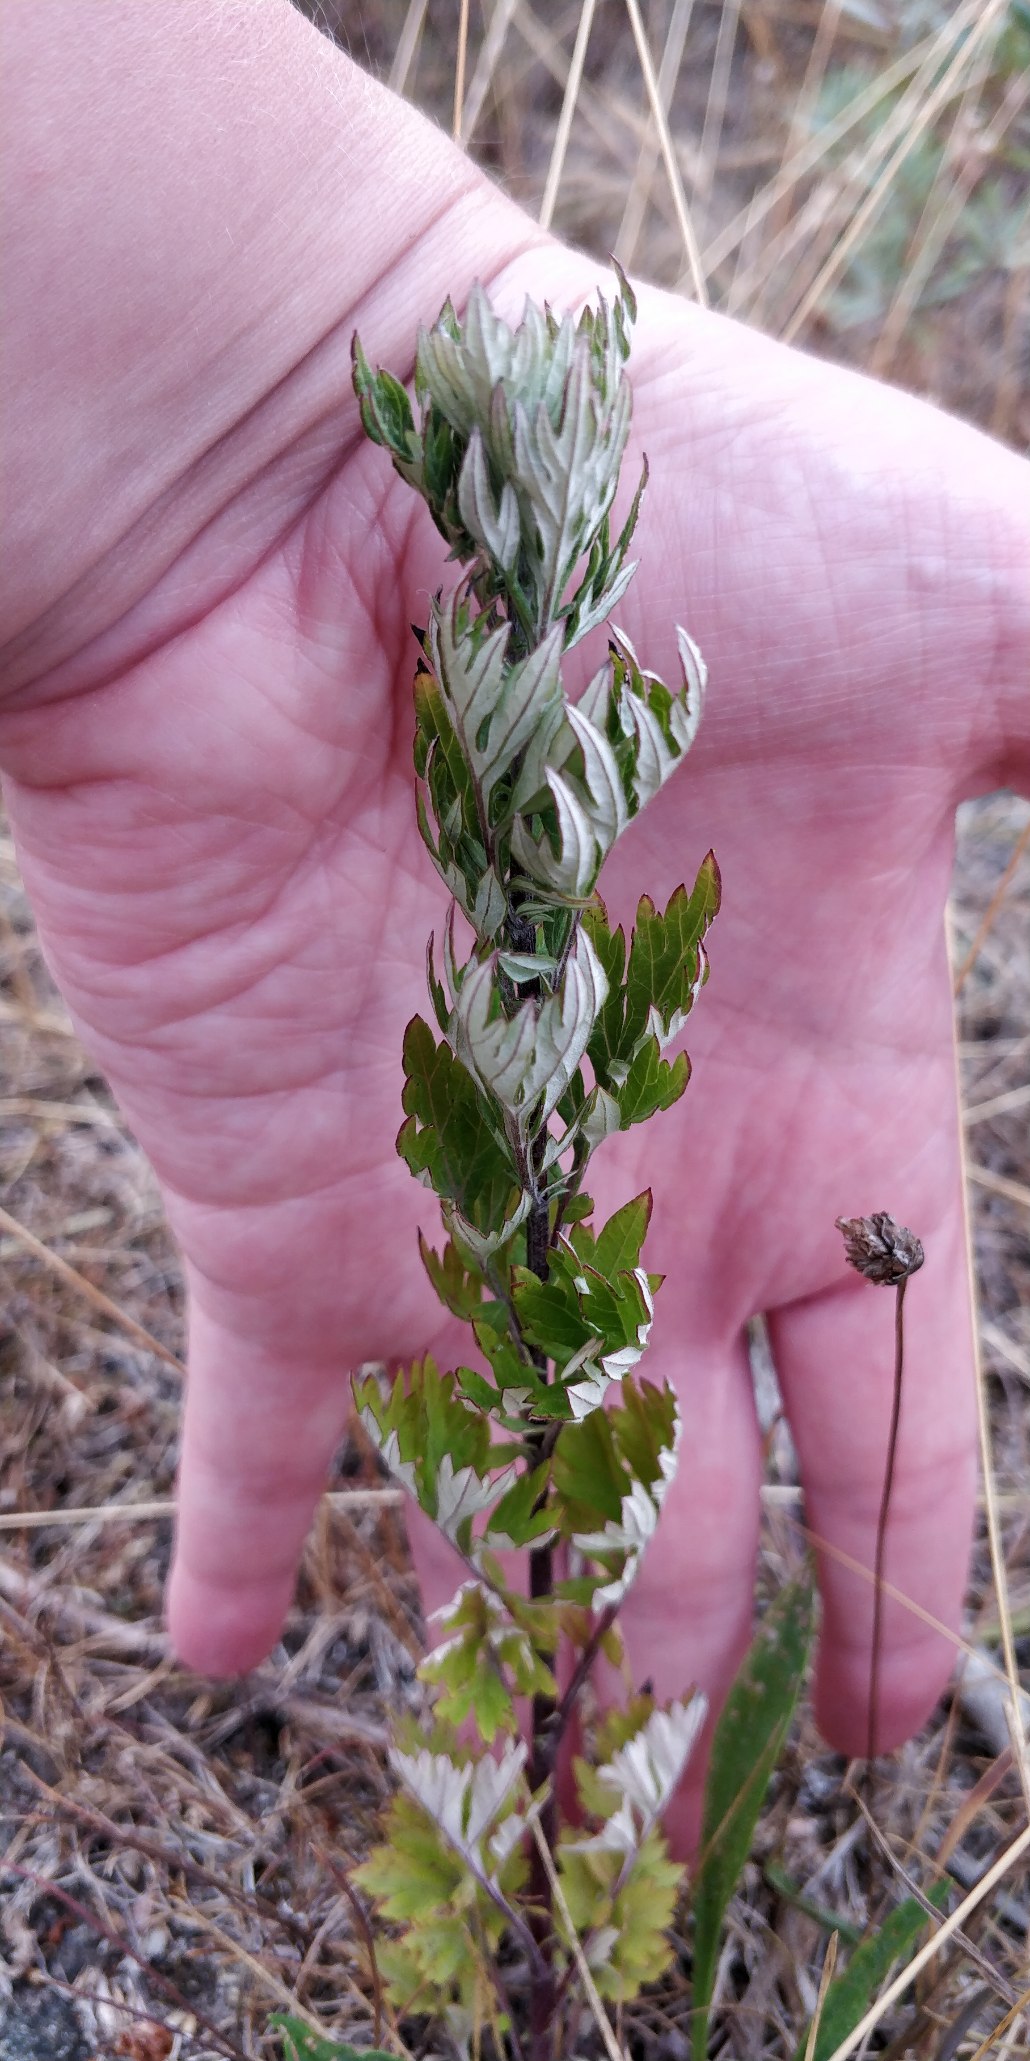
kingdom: Plantae
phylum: Tracheophyta
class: Magnoliopsida
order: Asterales
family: Asteraceae
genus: Artemisia
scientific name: Artemisia vulgaris
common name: Grå-bynke
